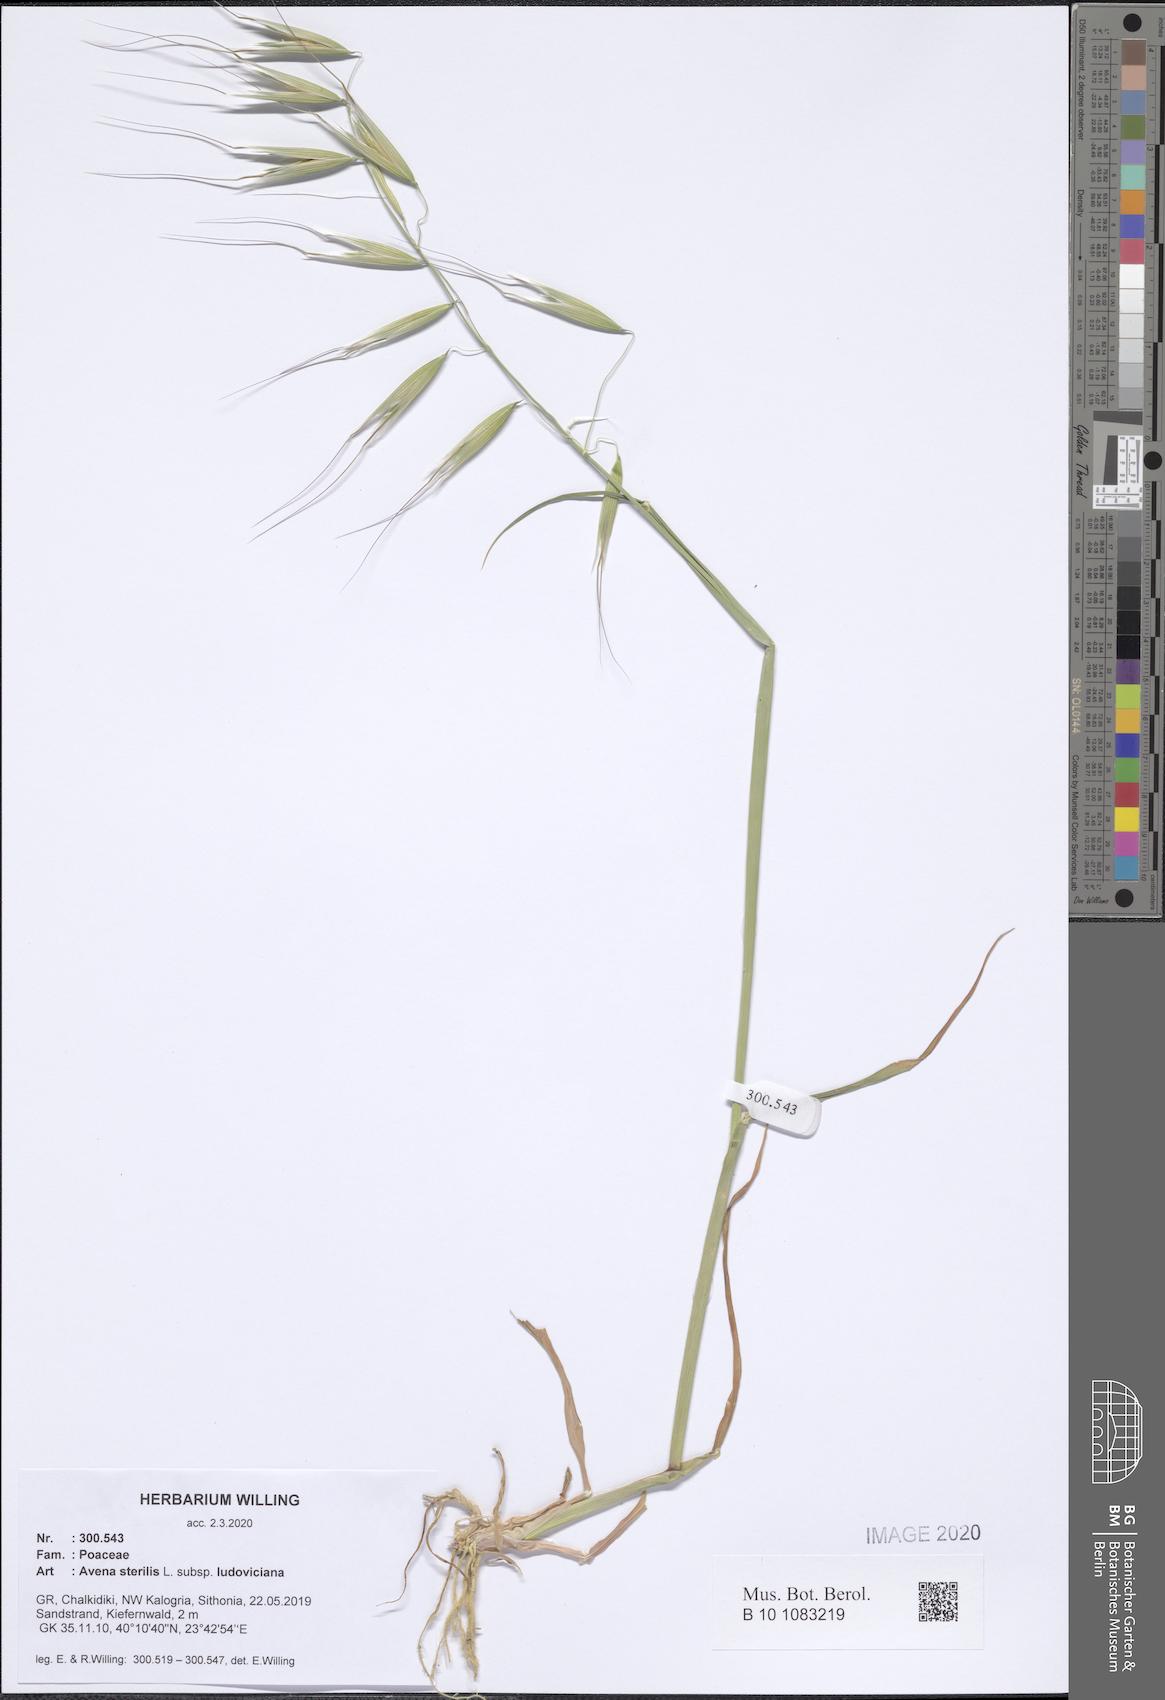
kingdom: Plantae
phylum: Tracheophyta
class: Liliopsida
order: Poales
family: Poaceae
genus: Avena
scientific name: Avena sterilis
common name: Animated oat
